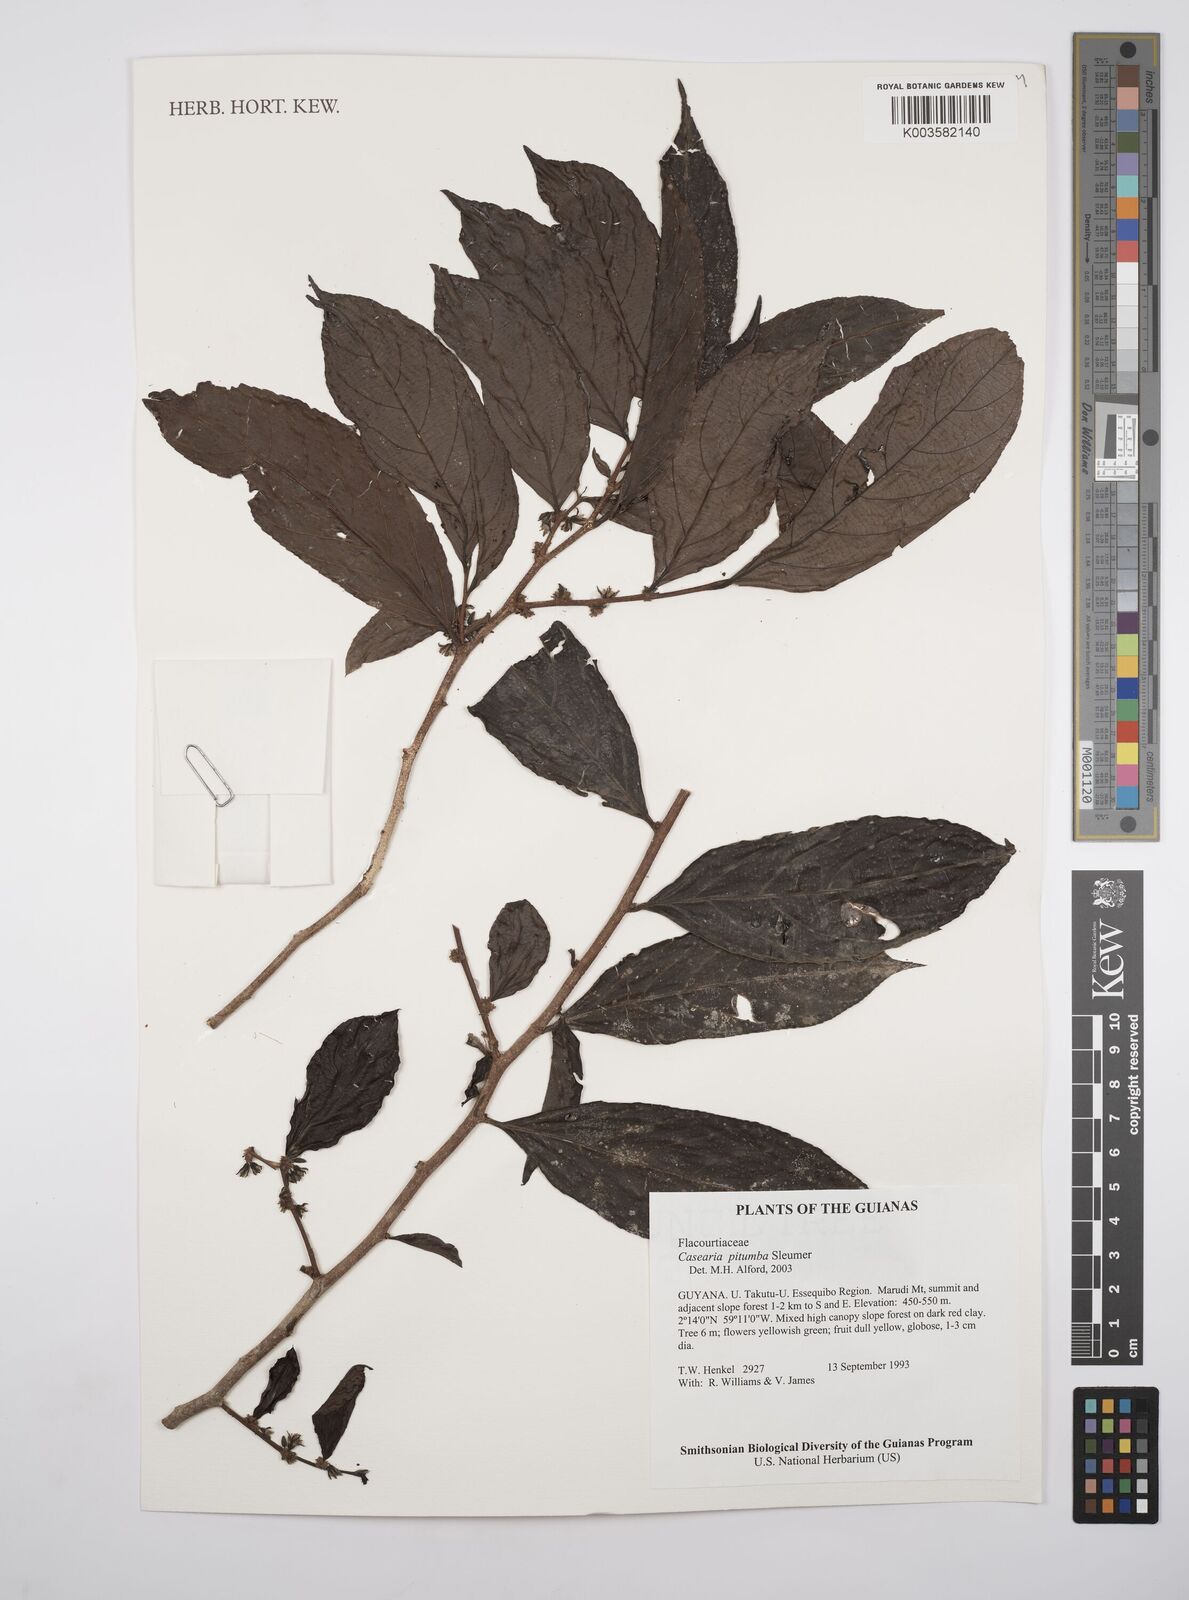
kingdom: Plantae
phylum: Tracheophyta
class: Magnoliopsida
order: Malpighiales
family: Salicaceae
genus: Casearia
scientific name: Casearia pitumba
